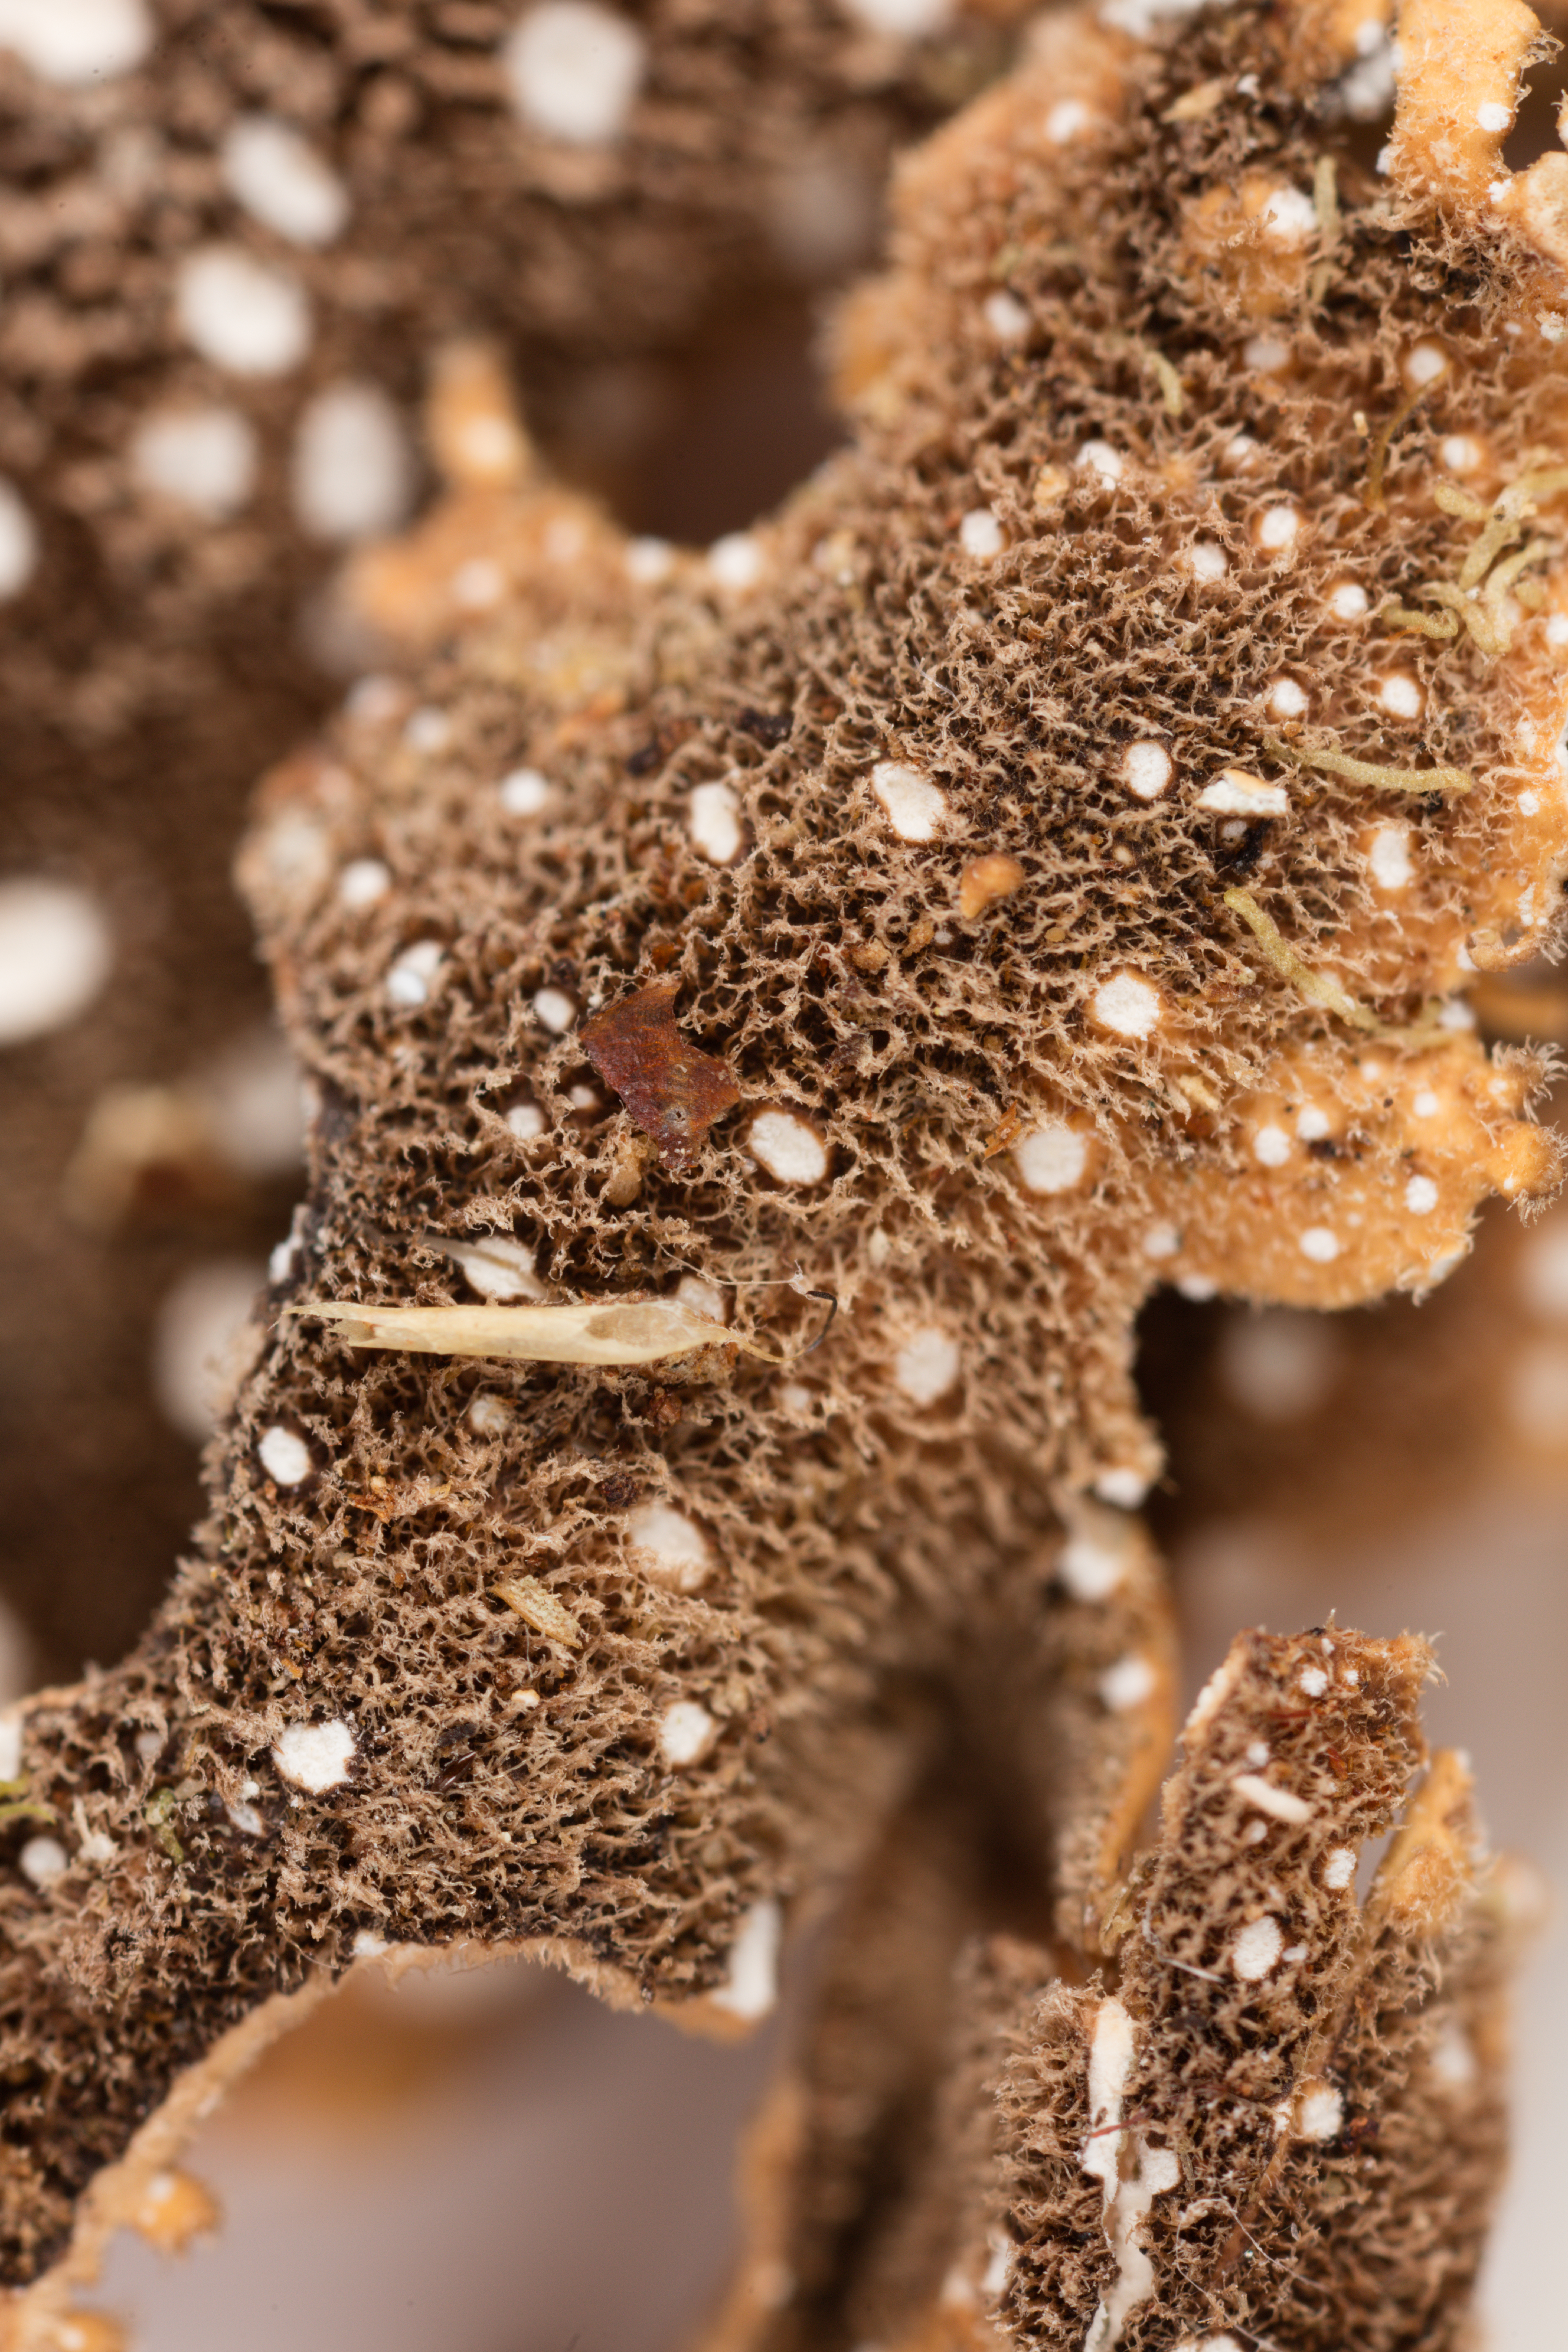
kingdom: Fungi
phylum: Ascomycota
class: Lecanoromycetes
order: Peltigerales
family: Lobariaceae
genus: Sticta
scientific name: Sticta martinii
